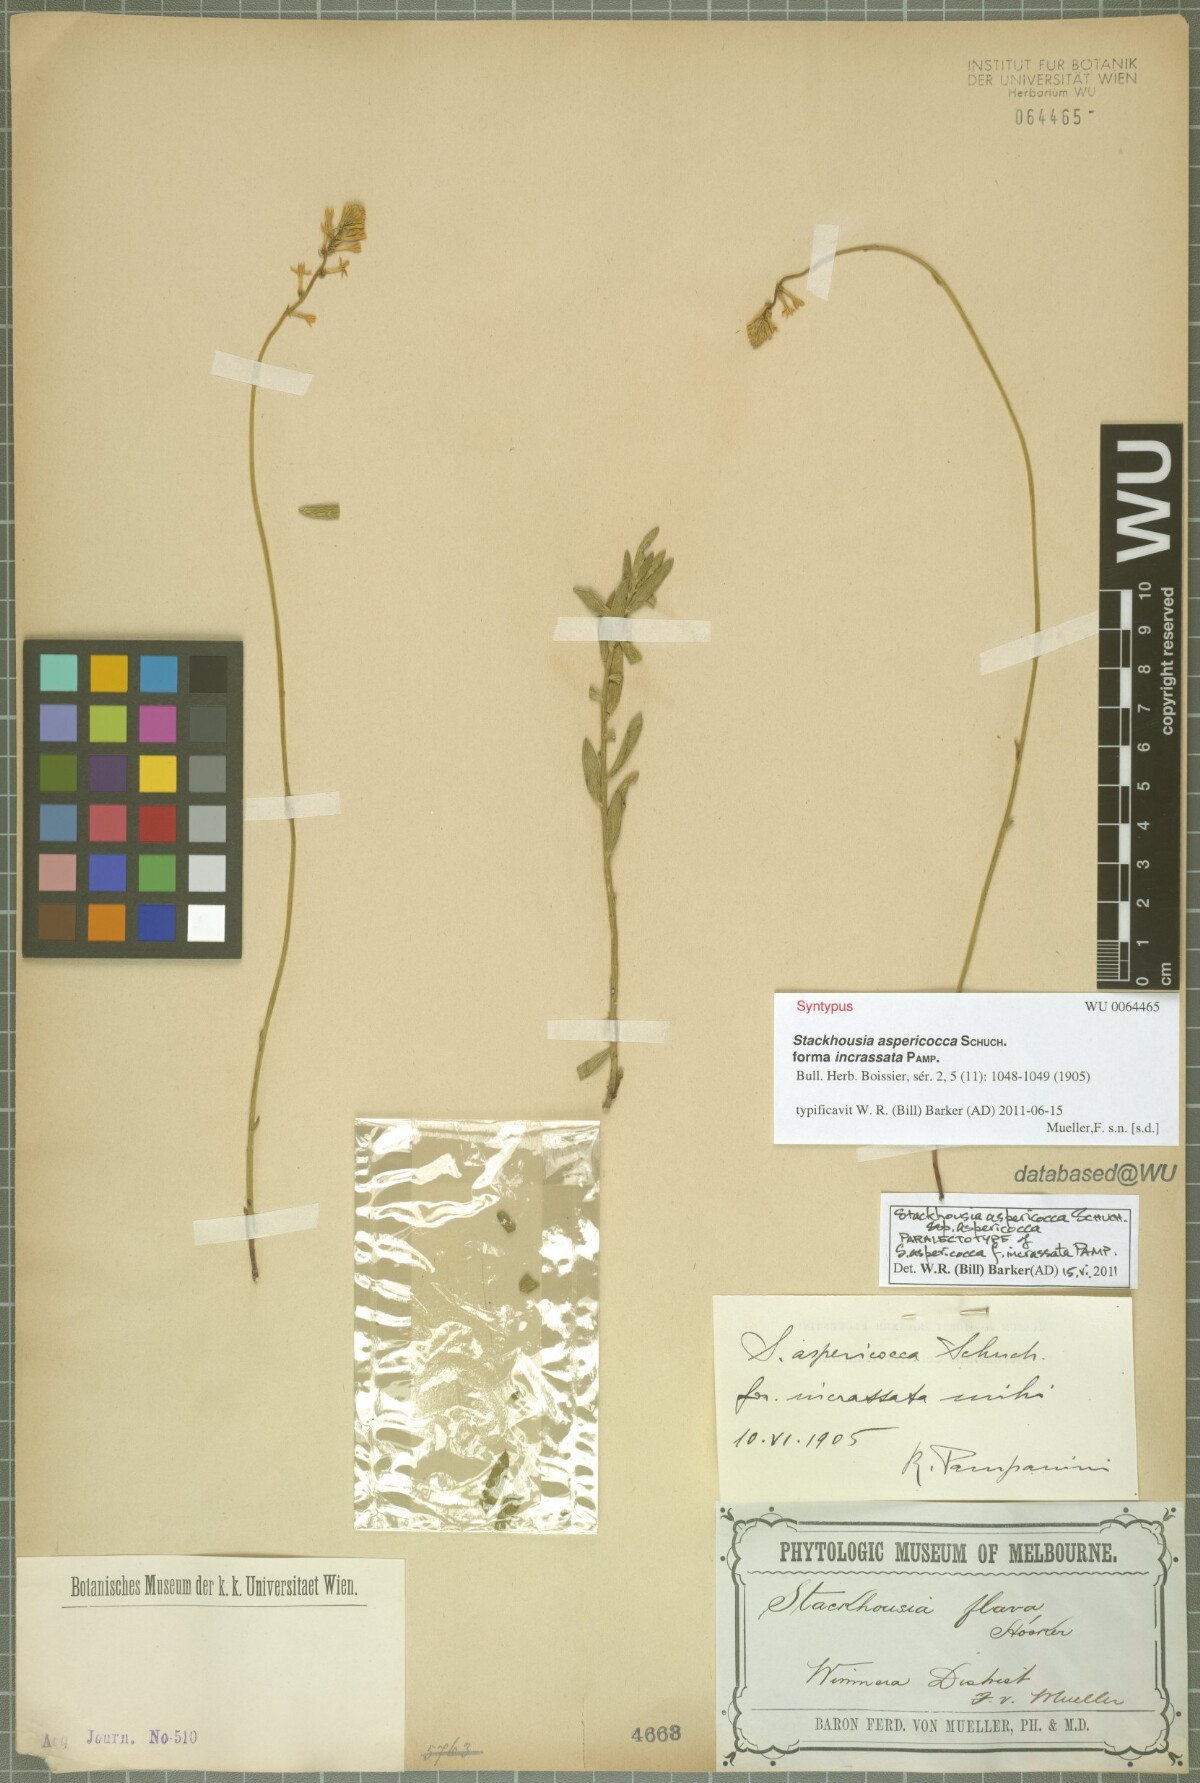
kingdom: Plantae
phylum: Tracheophyta
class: Magnoliopsida
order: Celastrales
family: Celastraceae
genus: Stackhousia
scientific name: Stackhousia monogyna
